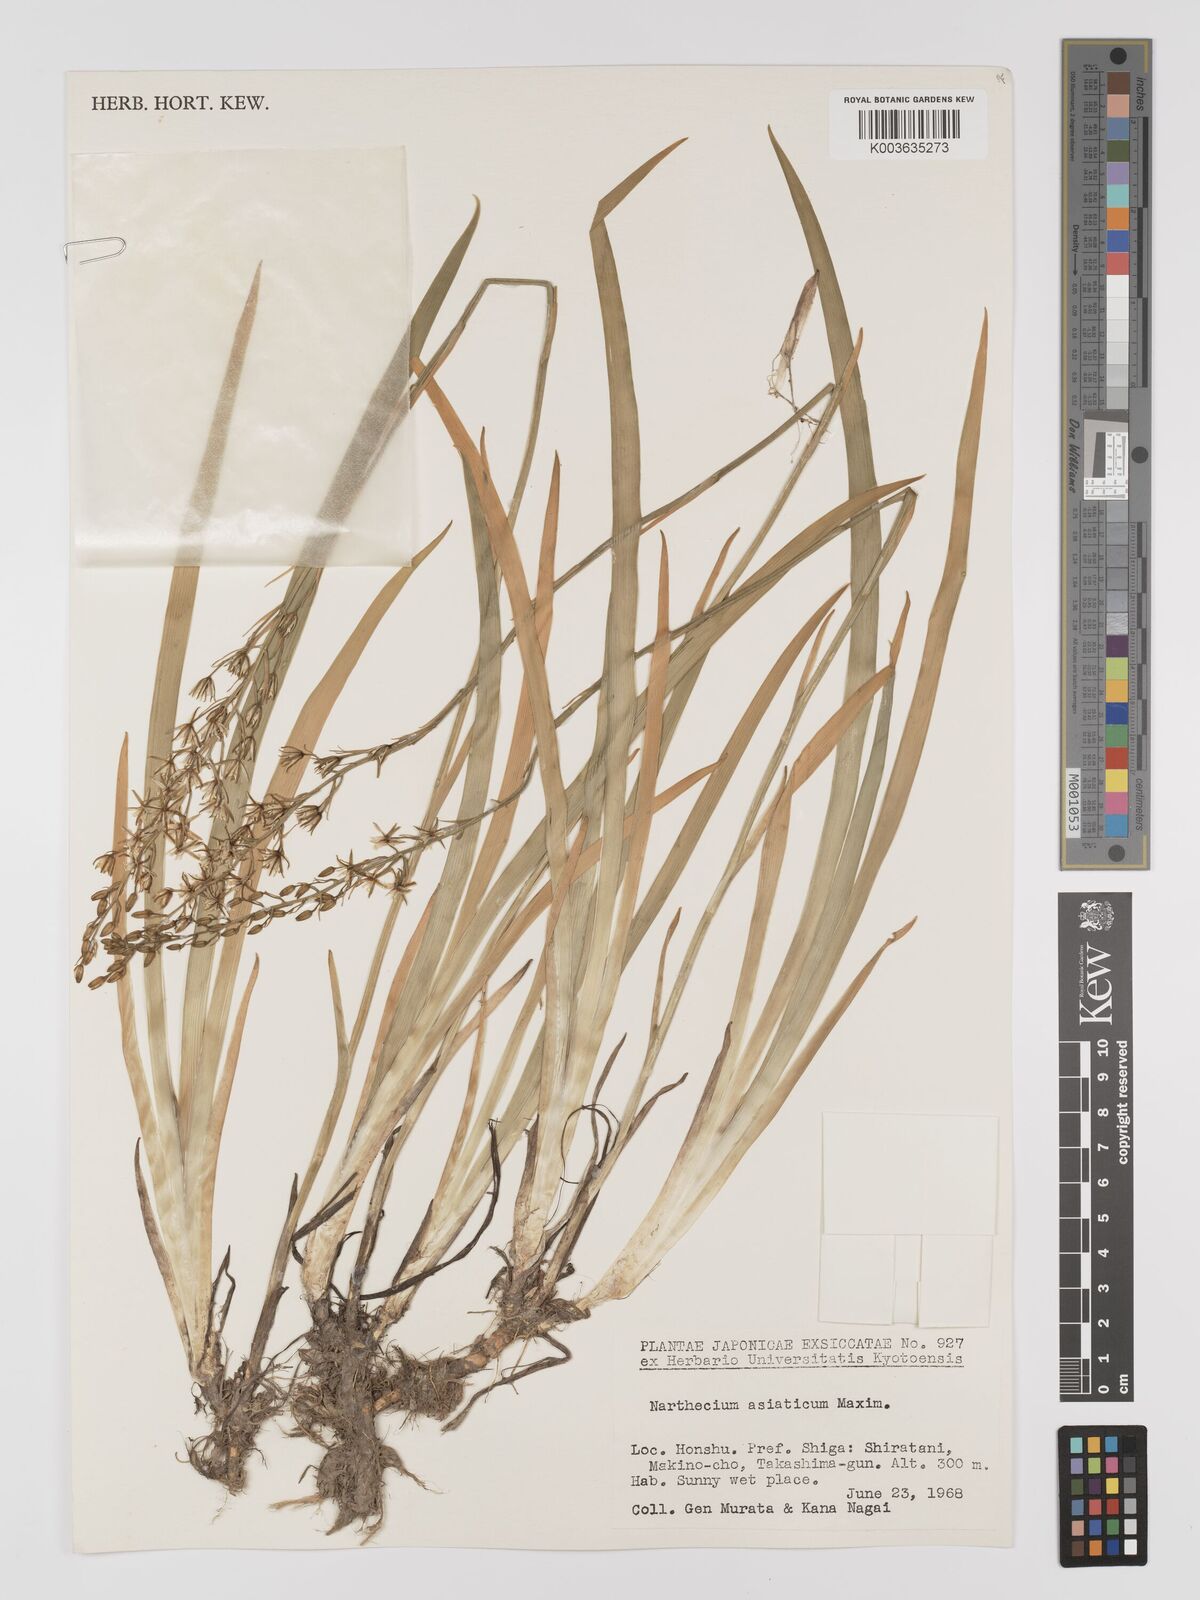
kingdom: Plantae
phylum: Tracheophyta
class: Liliopsida
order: Dioscoreales
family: Nartheciaceae
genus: Narthecium
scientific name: Narthecium asiaticum
